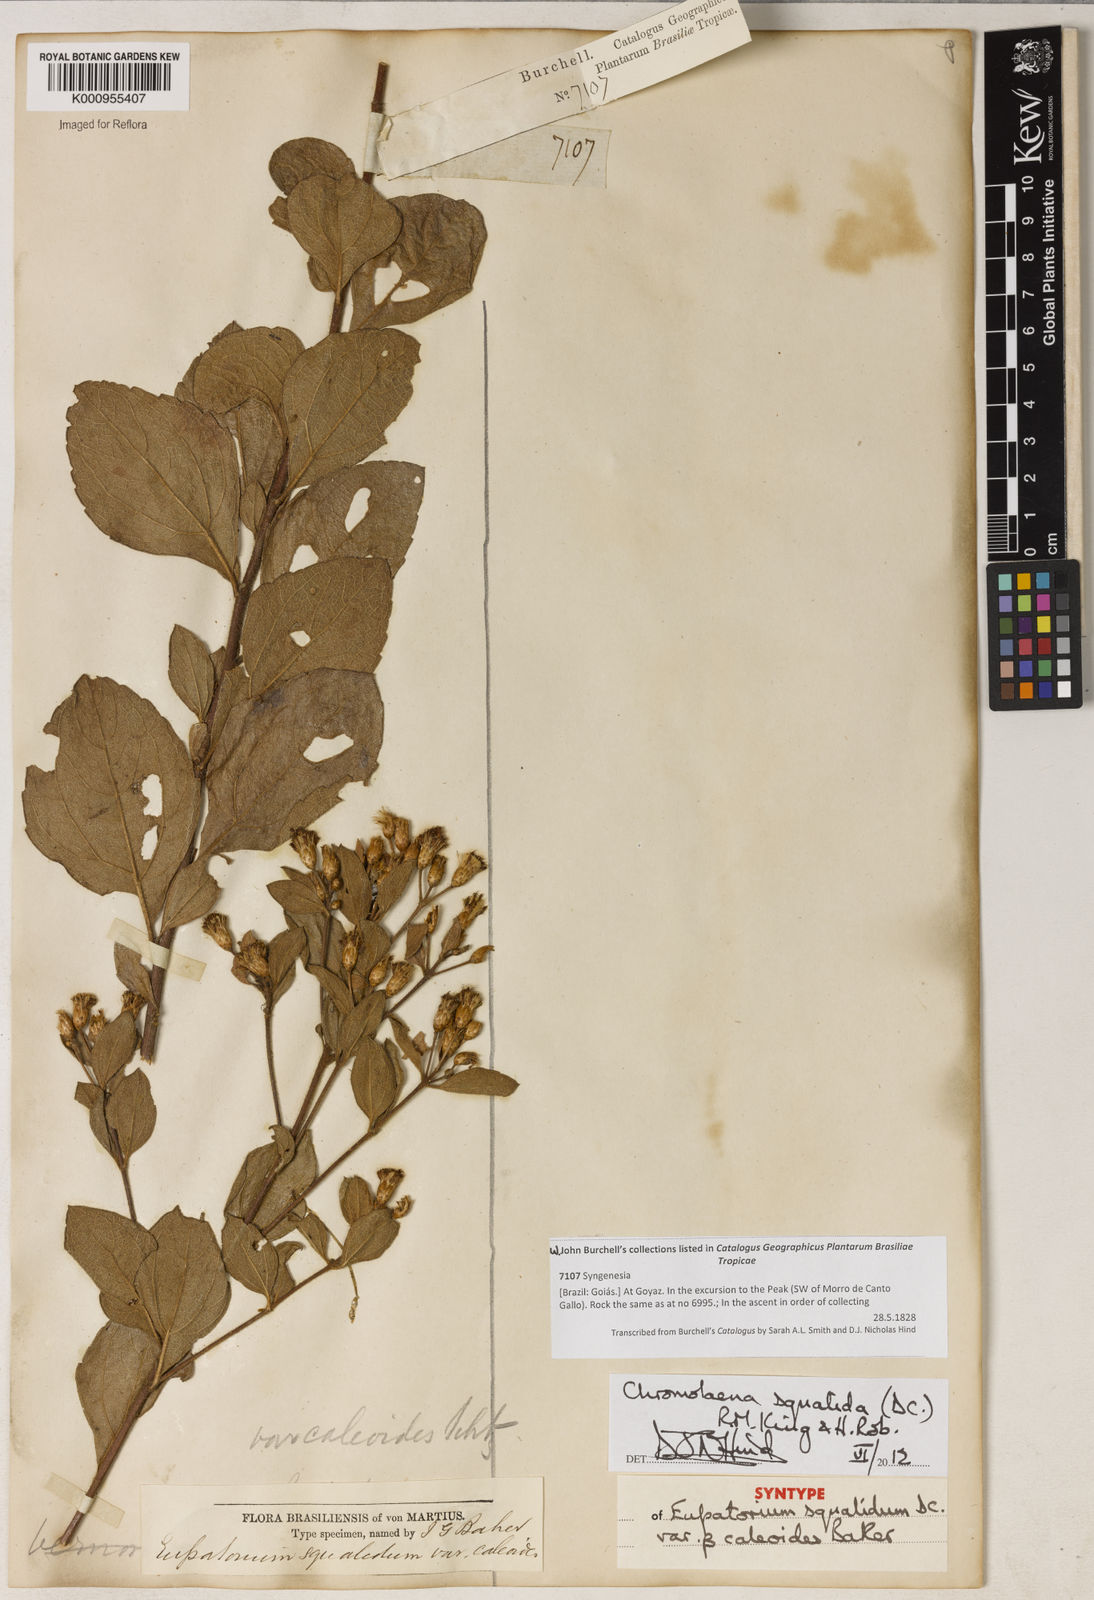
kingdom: Plantae
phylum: Tracheophyta
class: Magnoliopsida
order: Asterales
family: Asteraceae
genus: Chromolaena
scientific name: Chromolaena squalida
